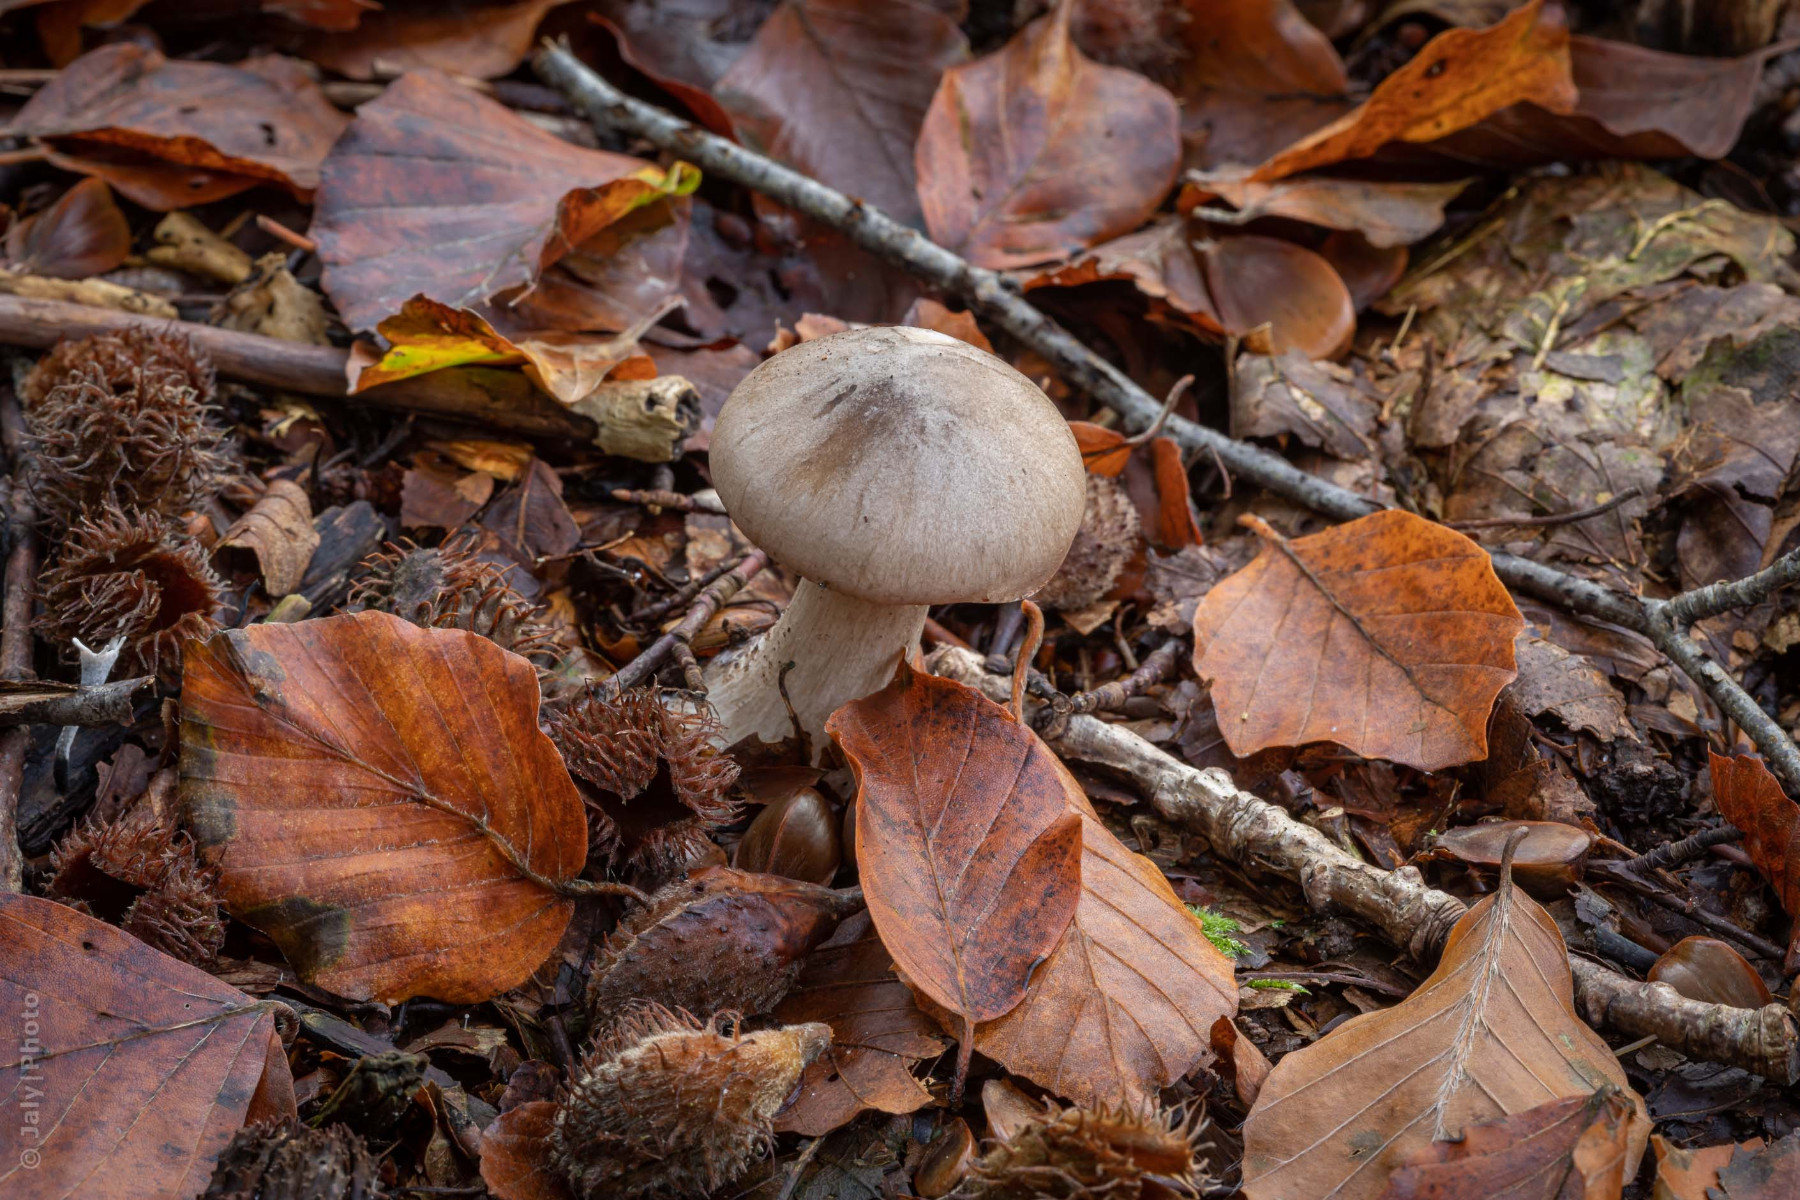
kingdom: Fungi
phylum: Basidiomycota
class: Agaricomycetes
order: Agaricales
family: Tricholomataceae
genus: Clitocybe
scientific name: Clitocybe nebularis
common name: tåge-tragthat
